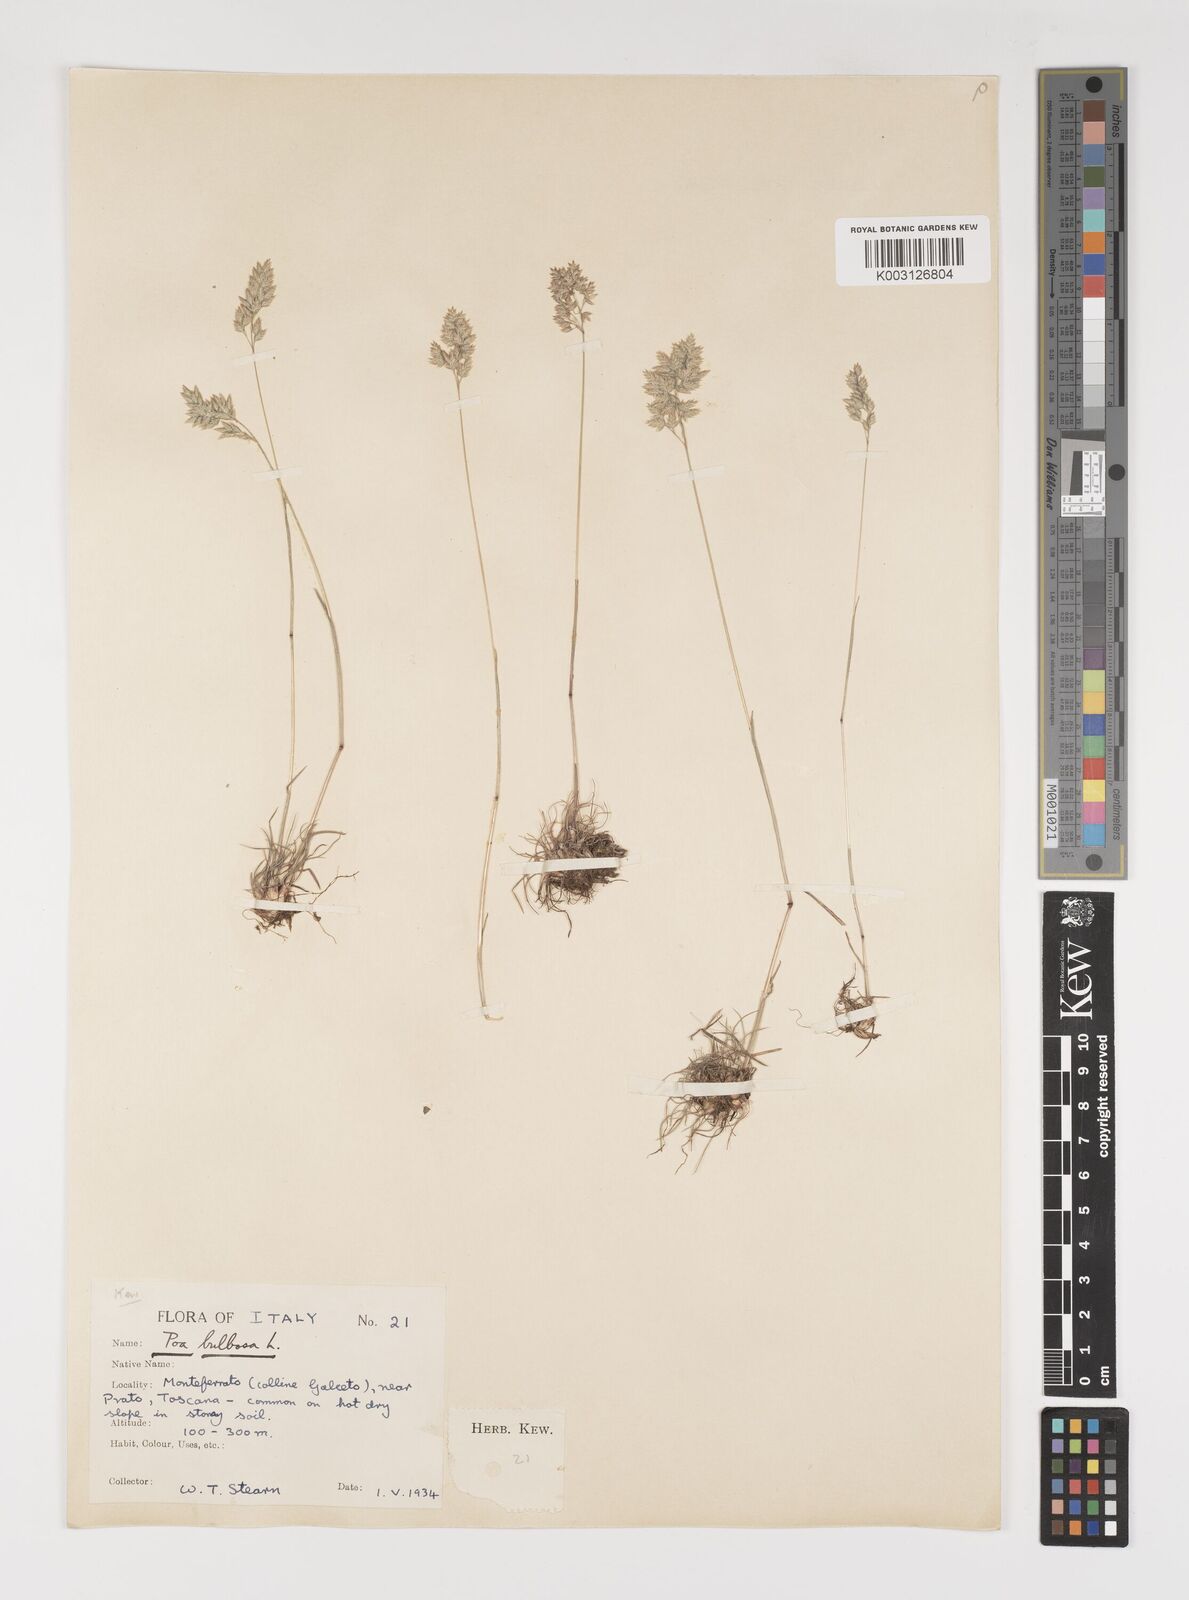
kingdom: Plantae
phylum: Tracheophyta
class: Liliopsida
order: Poales
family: Poaceae
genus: Poa
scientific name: Poa bulbosa
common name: Bulbous bluegrass
